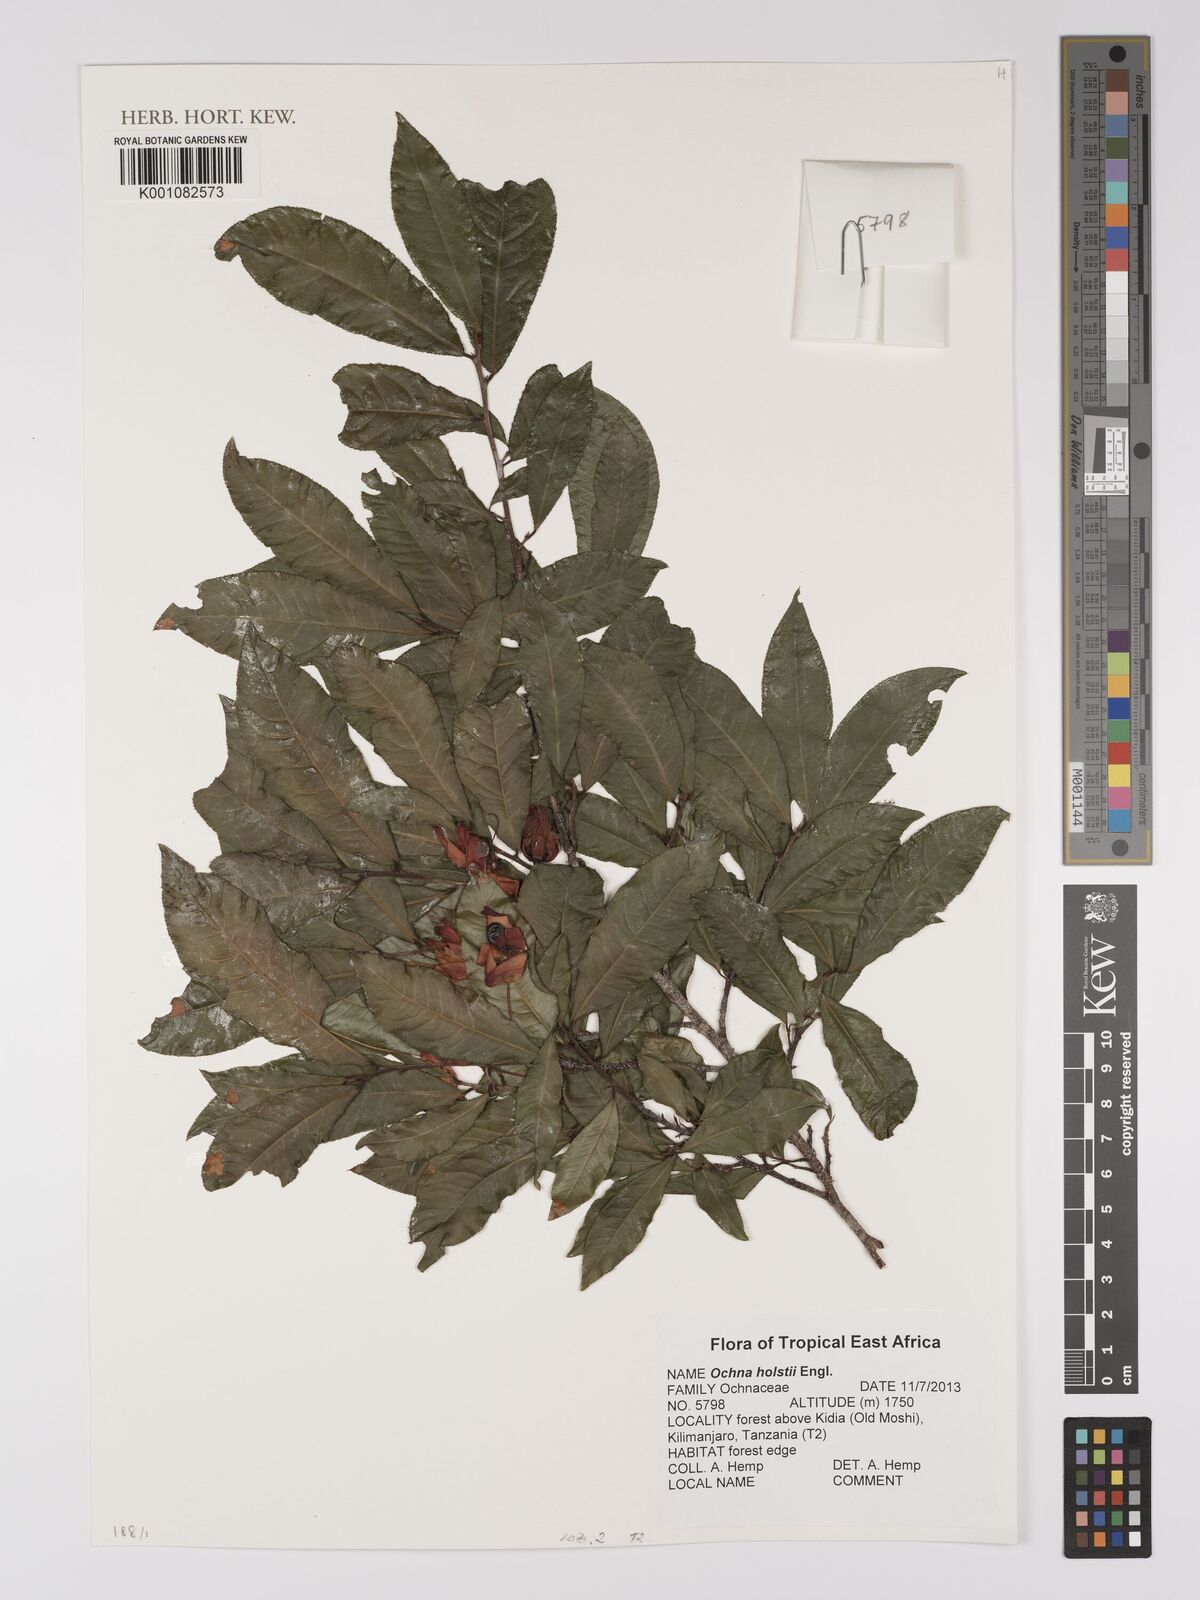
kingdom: Plantae
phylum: Tracheophyta
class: Magnoliopsida
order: Malpighiales
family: Ochnaceae
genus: Ochna
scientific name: Ochna holstii
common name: Red ironwood
